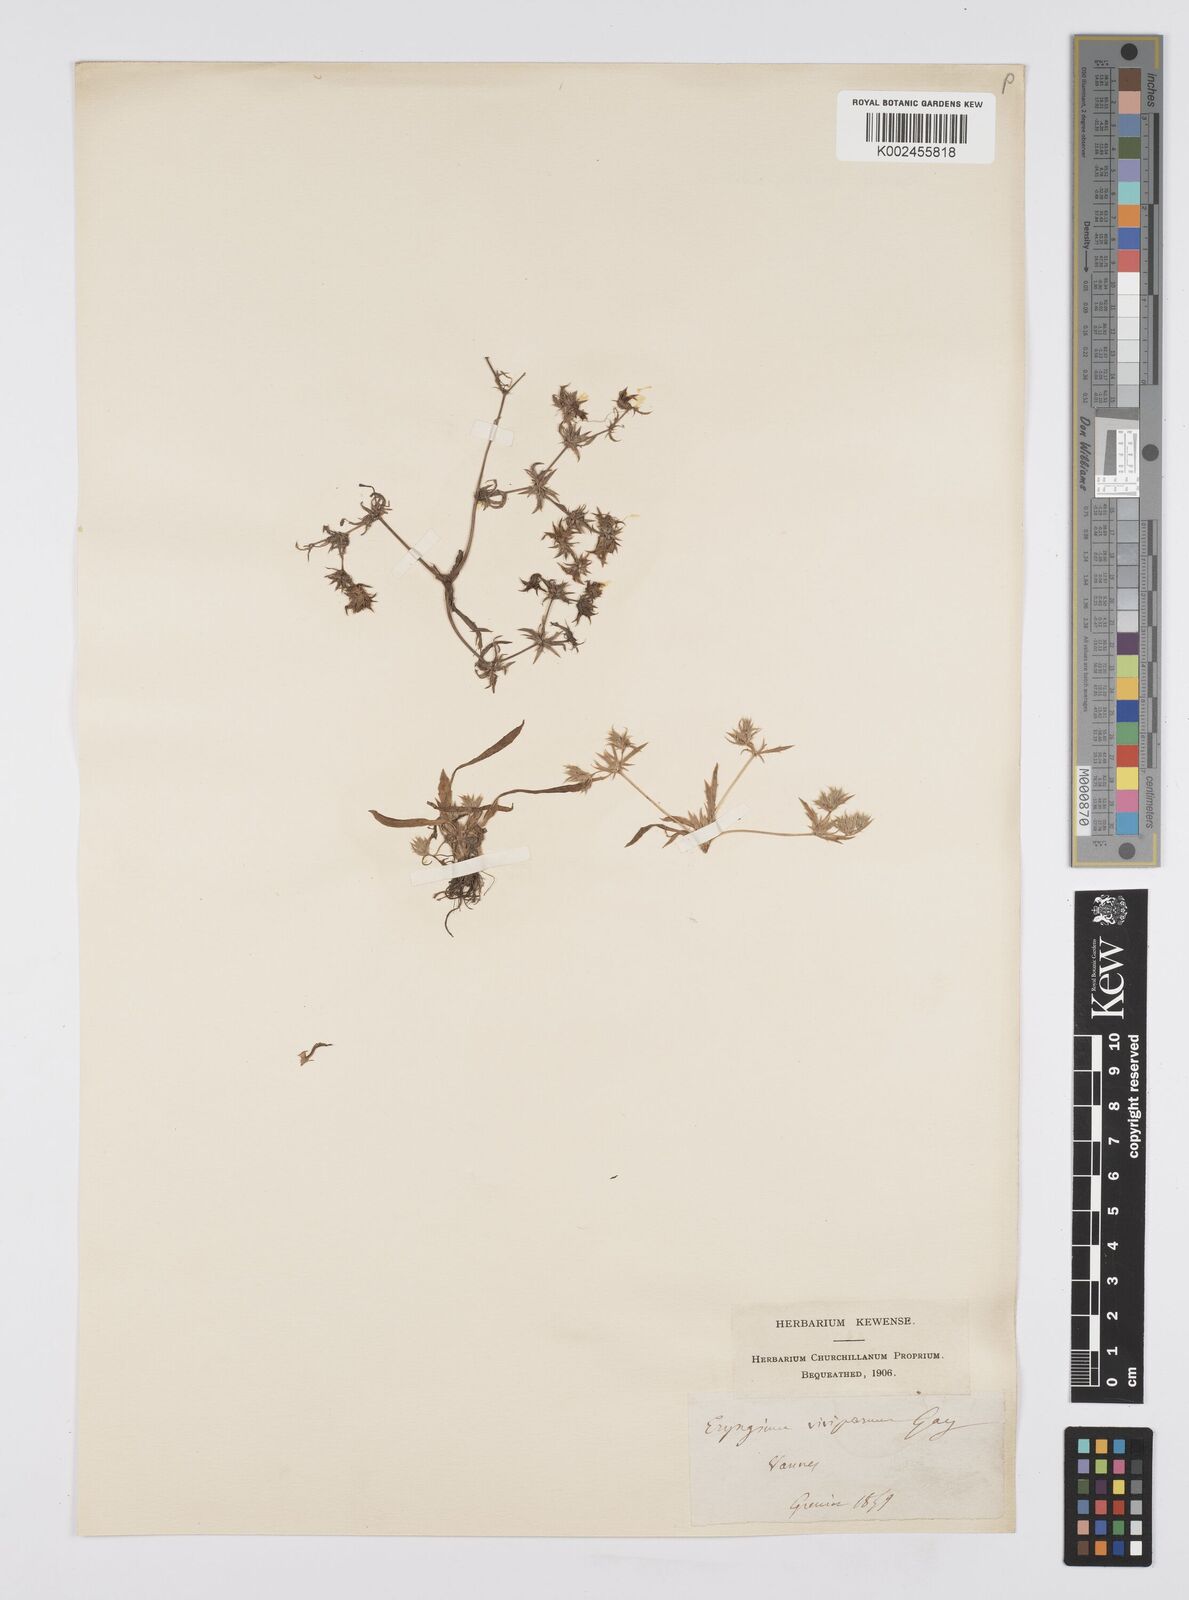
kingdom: Plantae
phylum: Tracheophyta
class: Magnoliopsida
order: Apiales
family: Apiaceae
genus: Eryngium
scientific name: Eryngium viviparum
